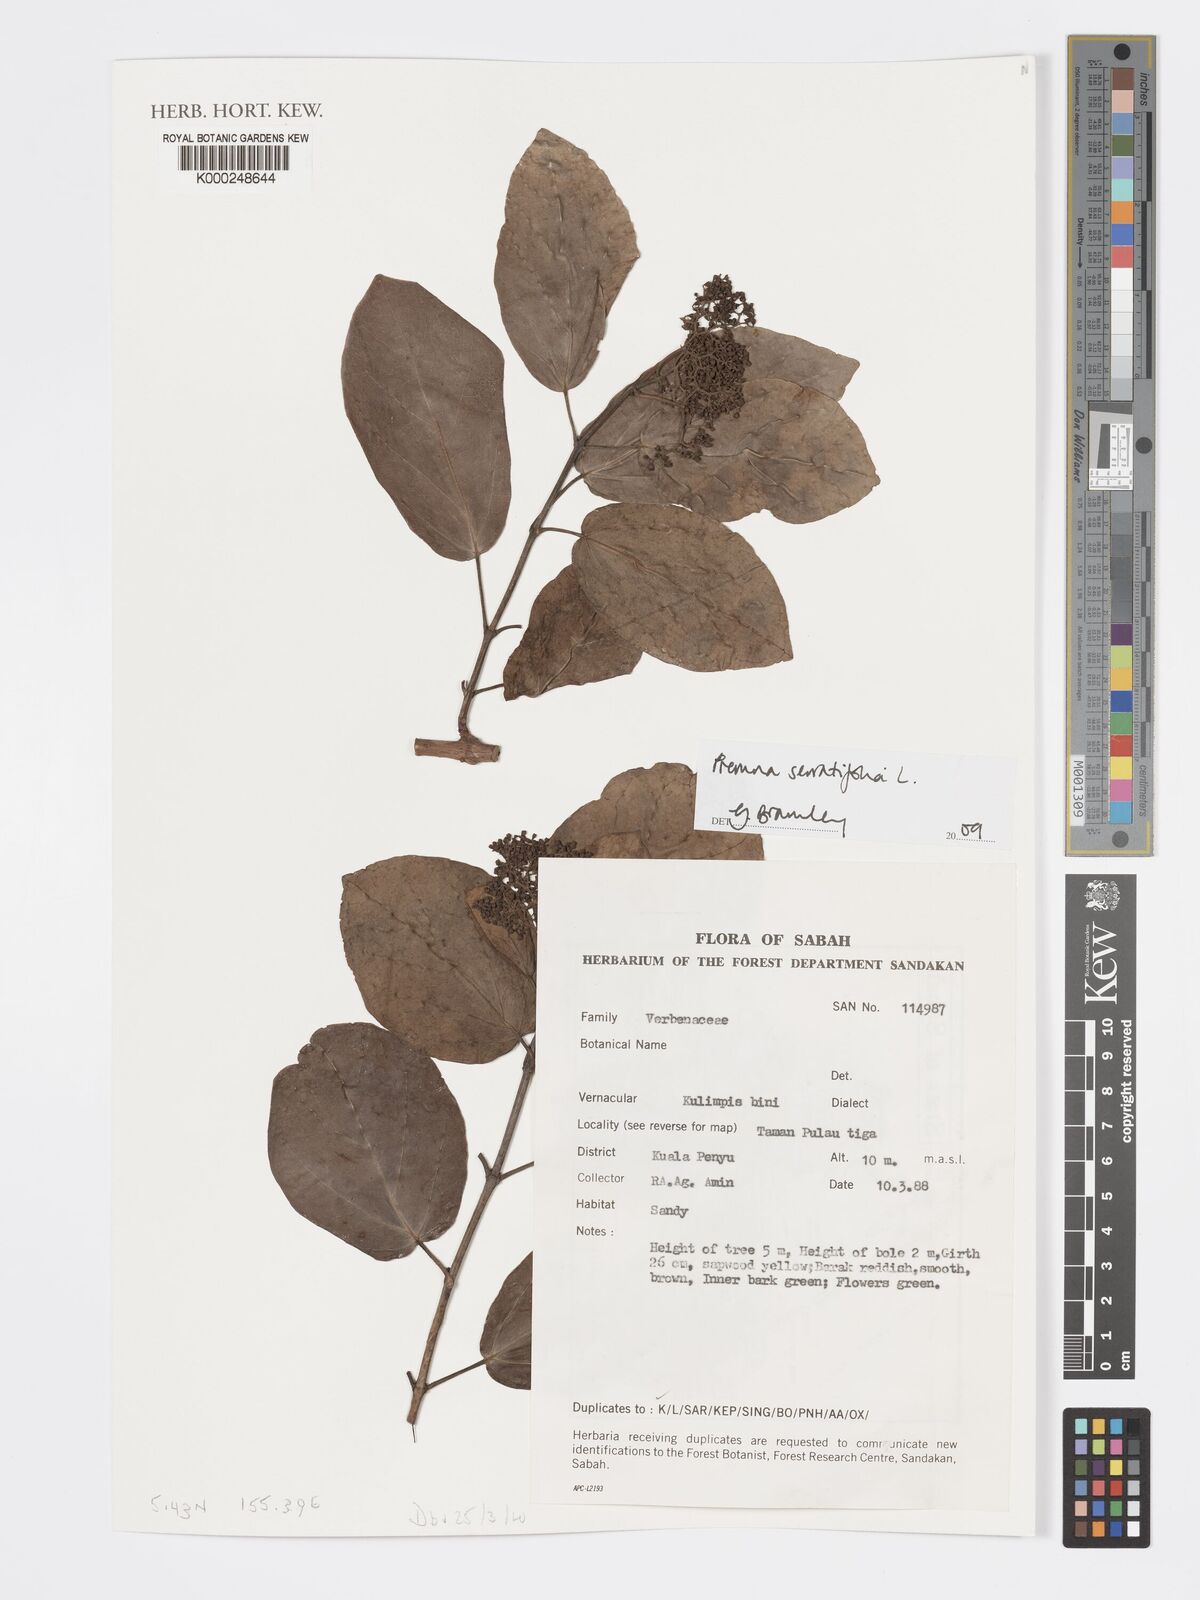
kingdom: Plantae
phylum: Tracheophyta
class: Magnoliopsida
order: Lamiales
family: Lamiaceae
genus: Premna
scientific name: Premna serratifolia
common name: Bastard guelder
